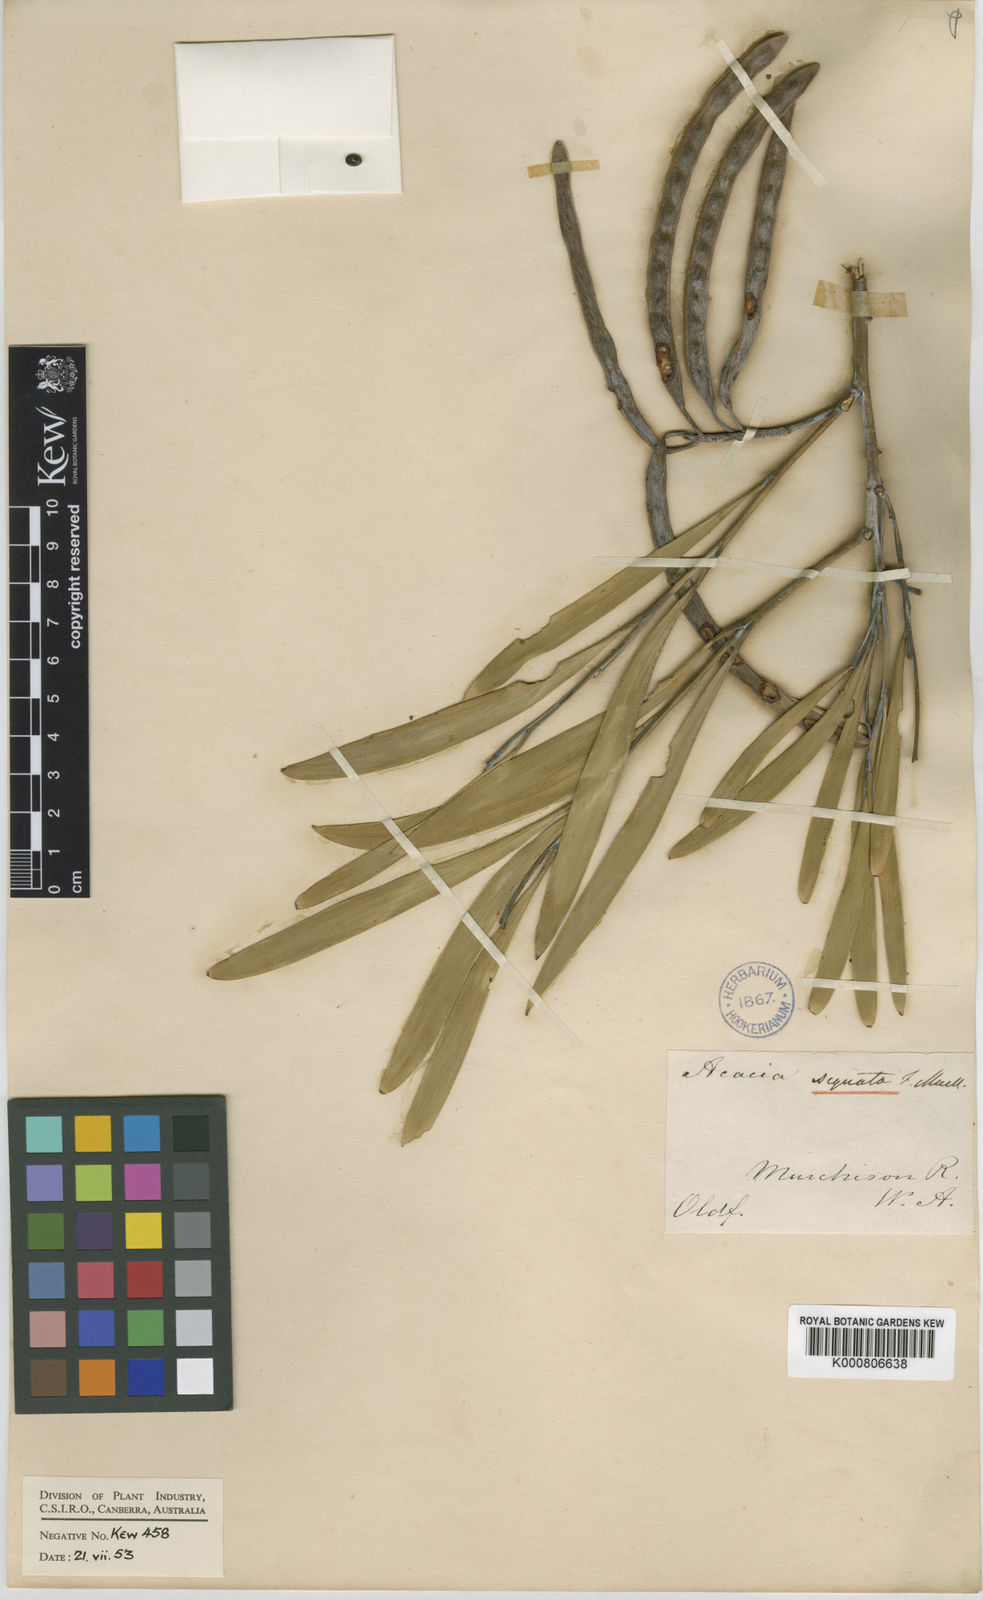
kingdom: Plantae
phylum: Tracheophyta
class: Magnoliopsida
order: Fabales
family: Fabaceae
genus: Acacia
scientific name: Acacia signata
